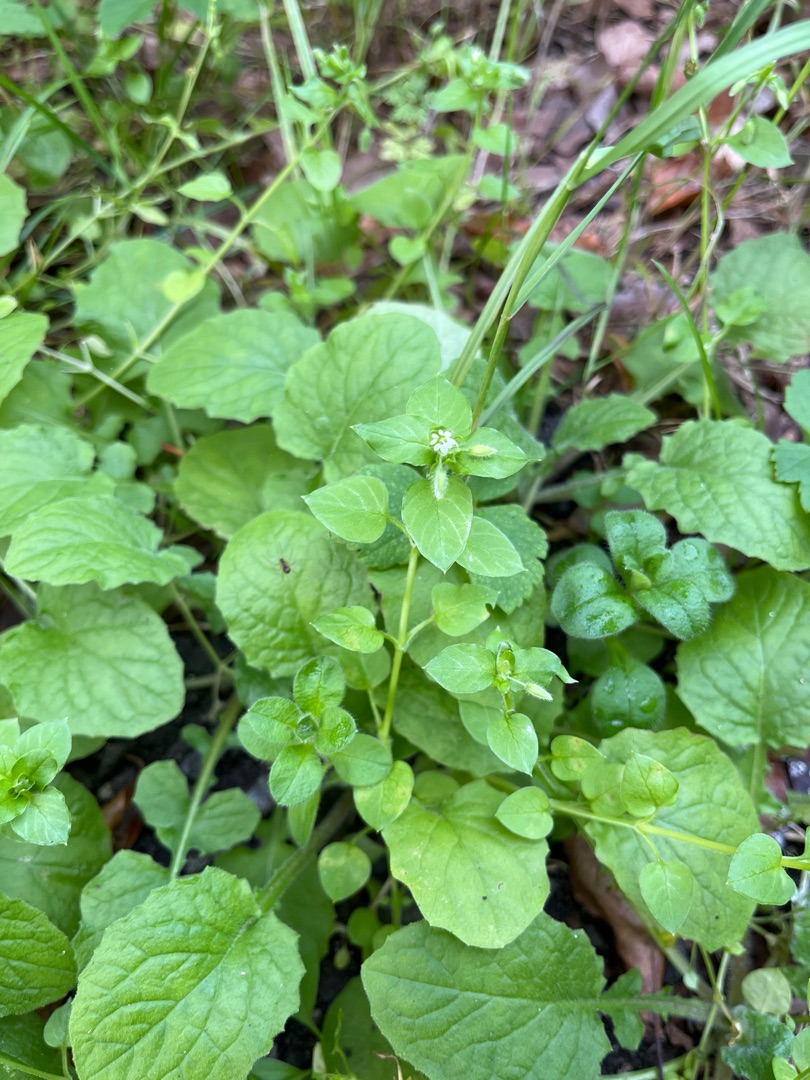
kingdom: Plantae
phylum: Tracheophyta
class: Magnoliopsida
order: Caryophyllales
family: Caryophyllaceae
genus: Stellaria
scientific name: Stellaria media
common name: Almindelig fuglegræs
